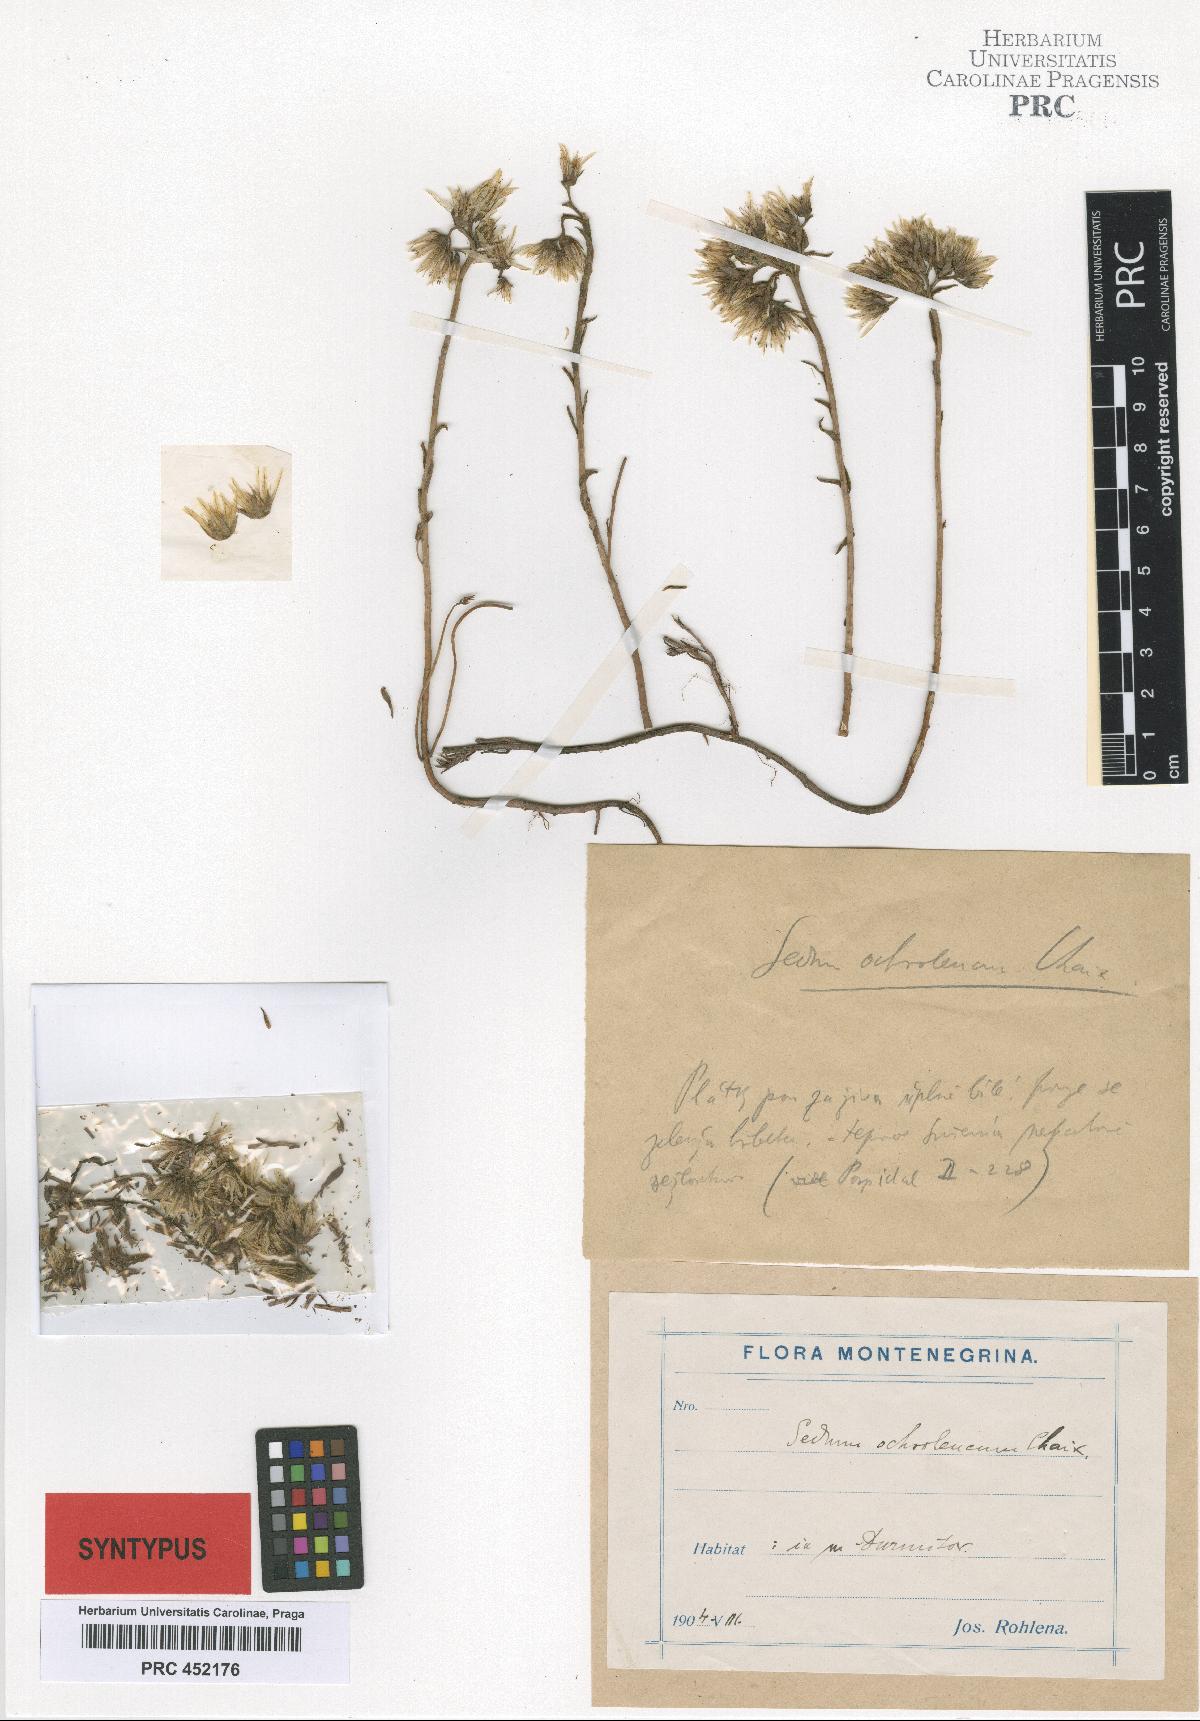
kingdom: Plantae
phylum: Tracheophyta
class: Magnoliopsida
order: Saxifragales
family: Crassulaceae
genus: Petrosedum
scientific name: Petrosedum
